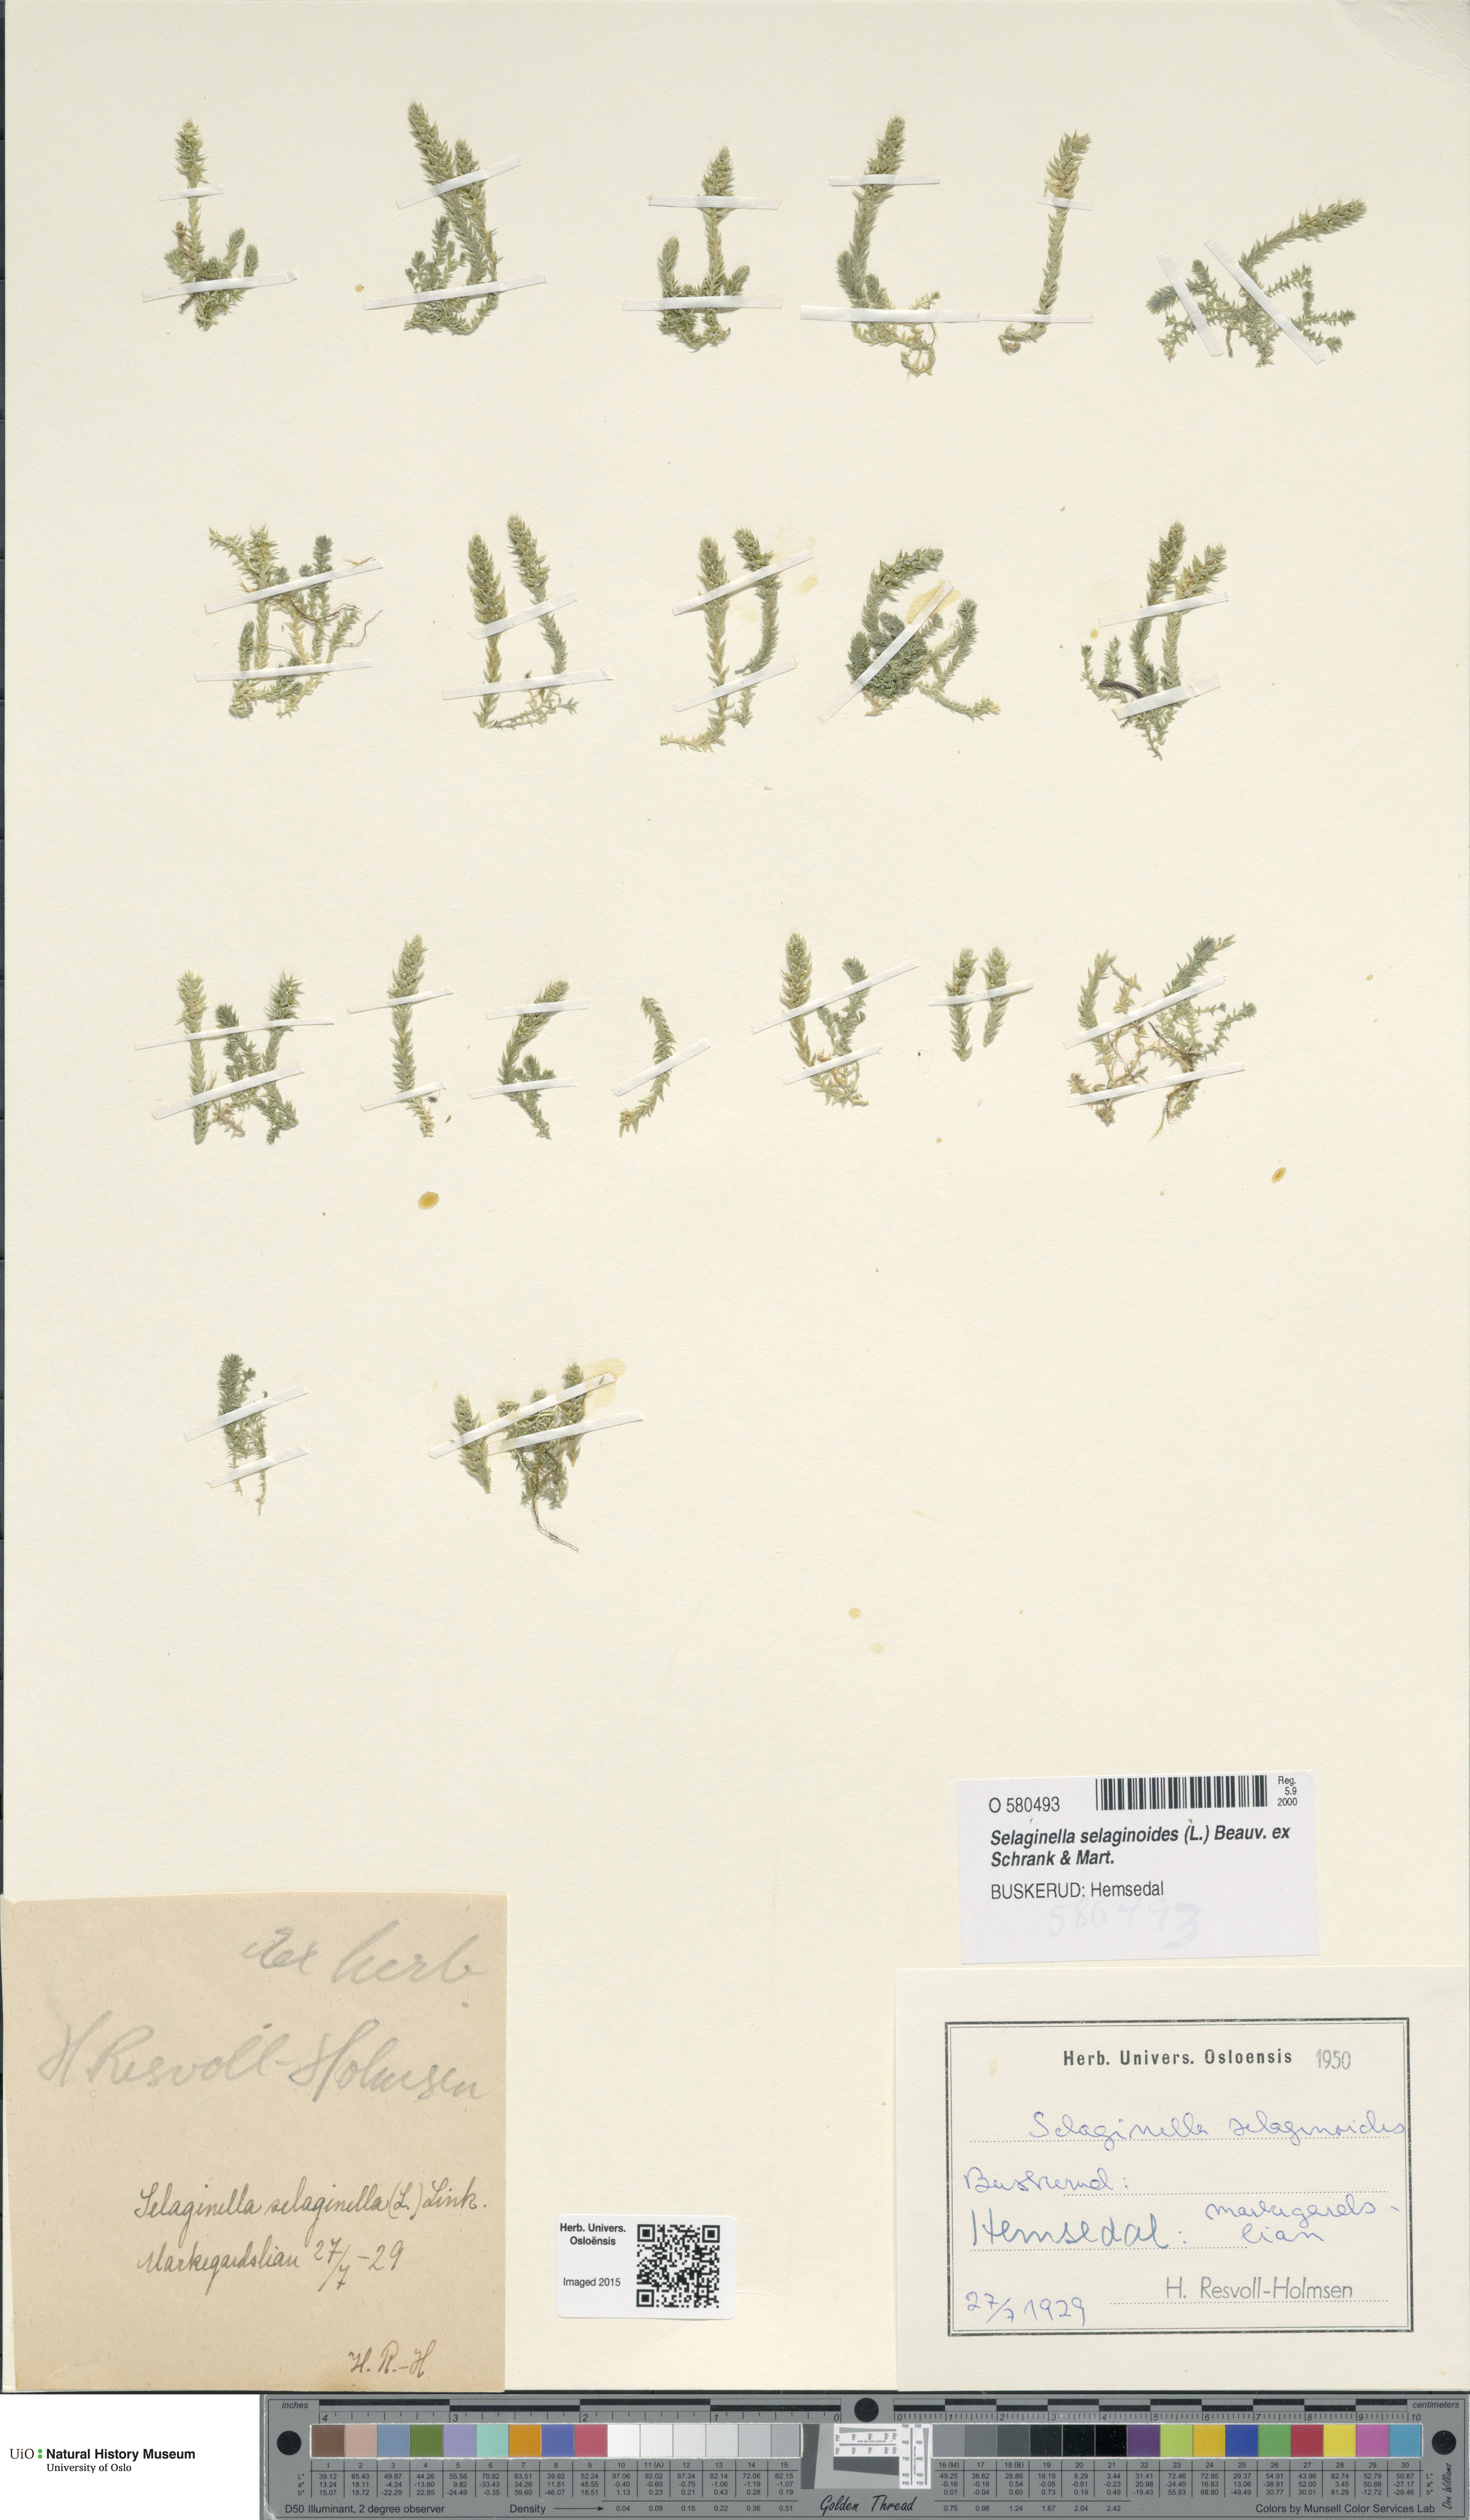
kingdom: Plantae
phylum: Tracheophyta
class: Lycopodiopsida
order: Selaginellales
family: Selaginellaceae
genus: Selaginella
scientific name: Selaginella selaginoides
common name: Prickly mountain-moss
